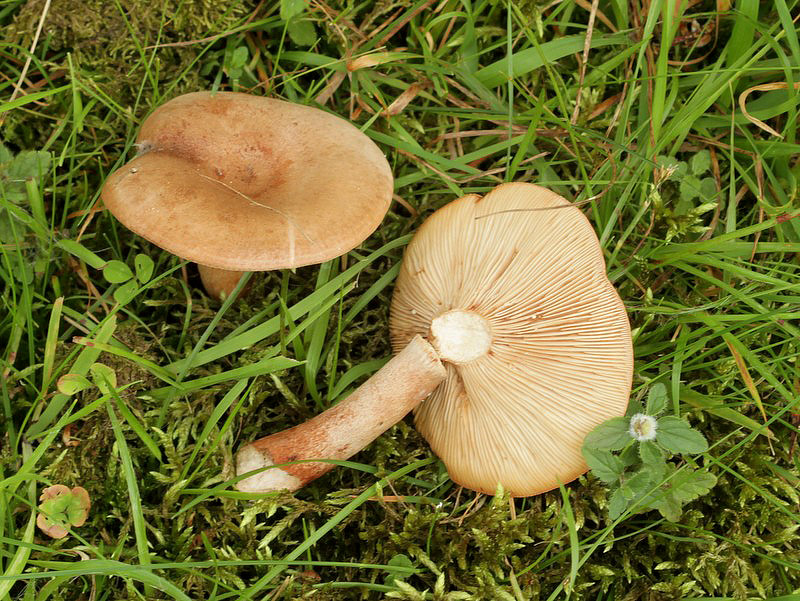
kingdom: Fungi
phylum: Basidiomycota
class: Agaricomycetes
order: Russulales
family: Russulaceae
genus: Lactarius
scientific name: Lactarius quietus
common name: ege-mælkehat
